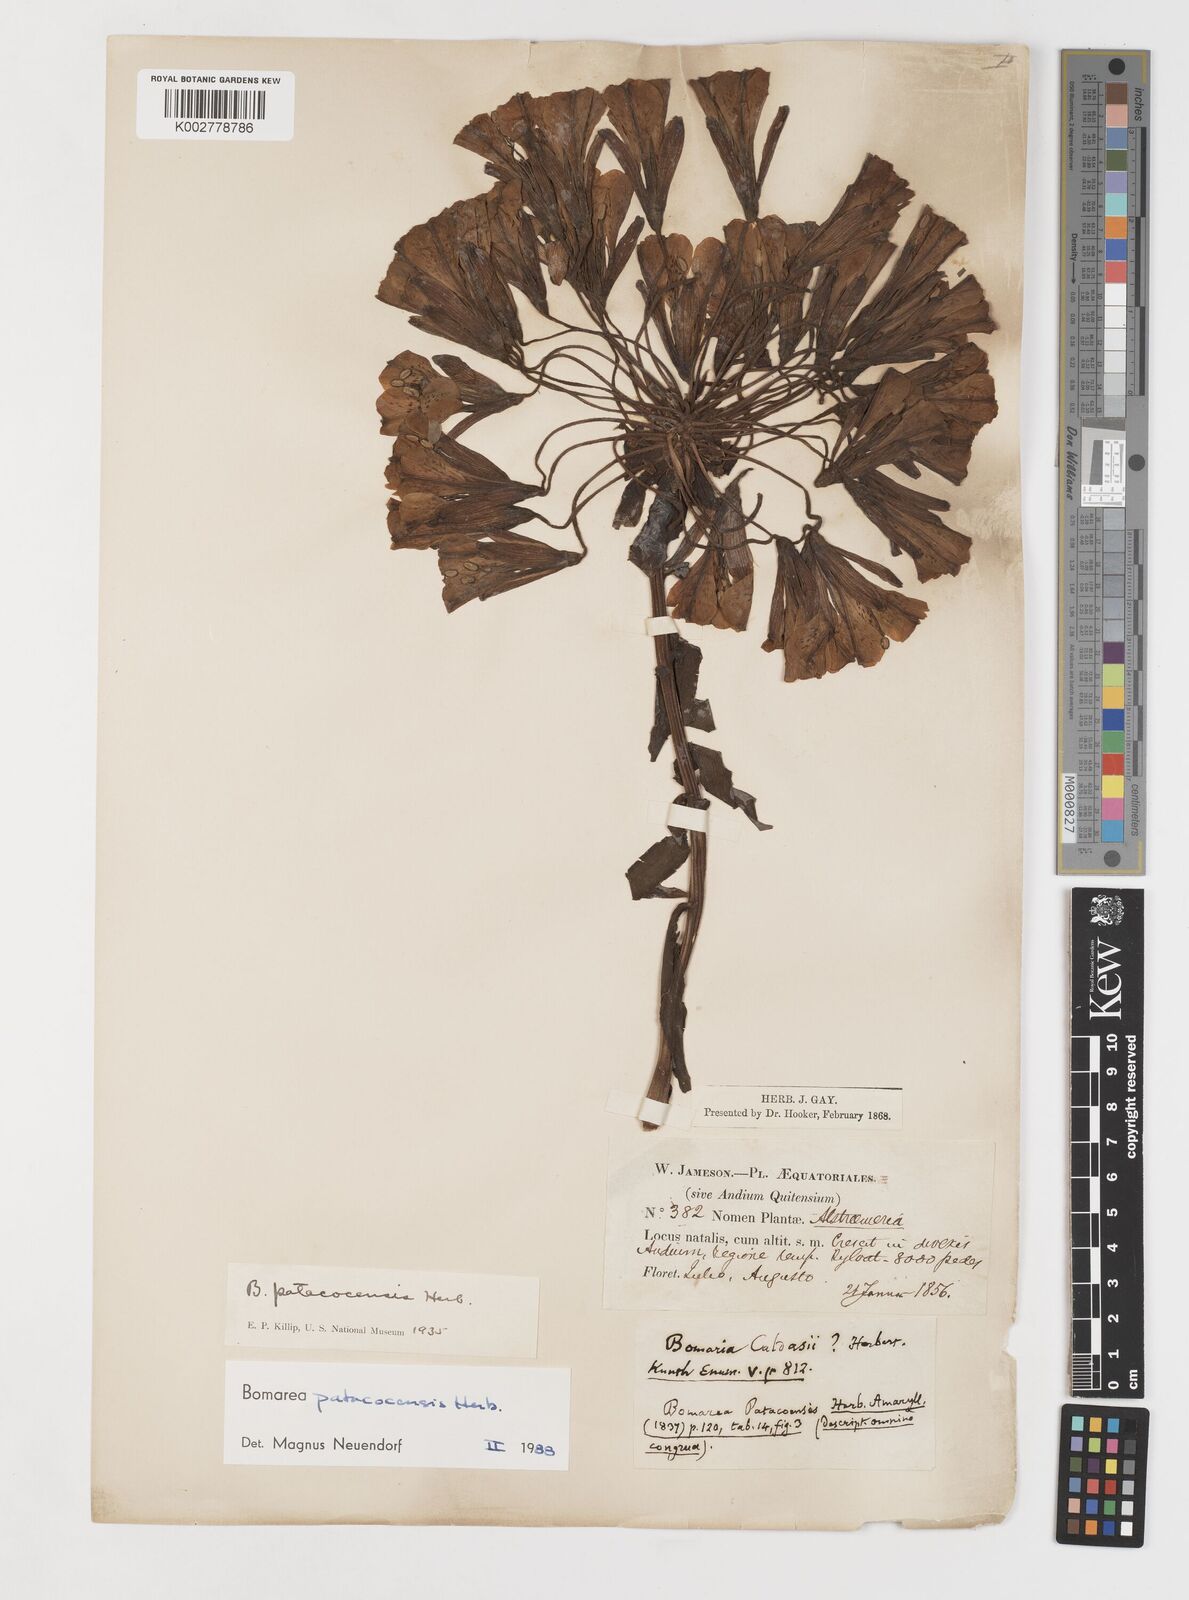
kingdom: Plantae
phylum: Tracheophyta
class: Liliopsida
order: Liliales
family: Alstroemeriaceae
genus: Bomarea
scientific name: Bomarea patacocensis
